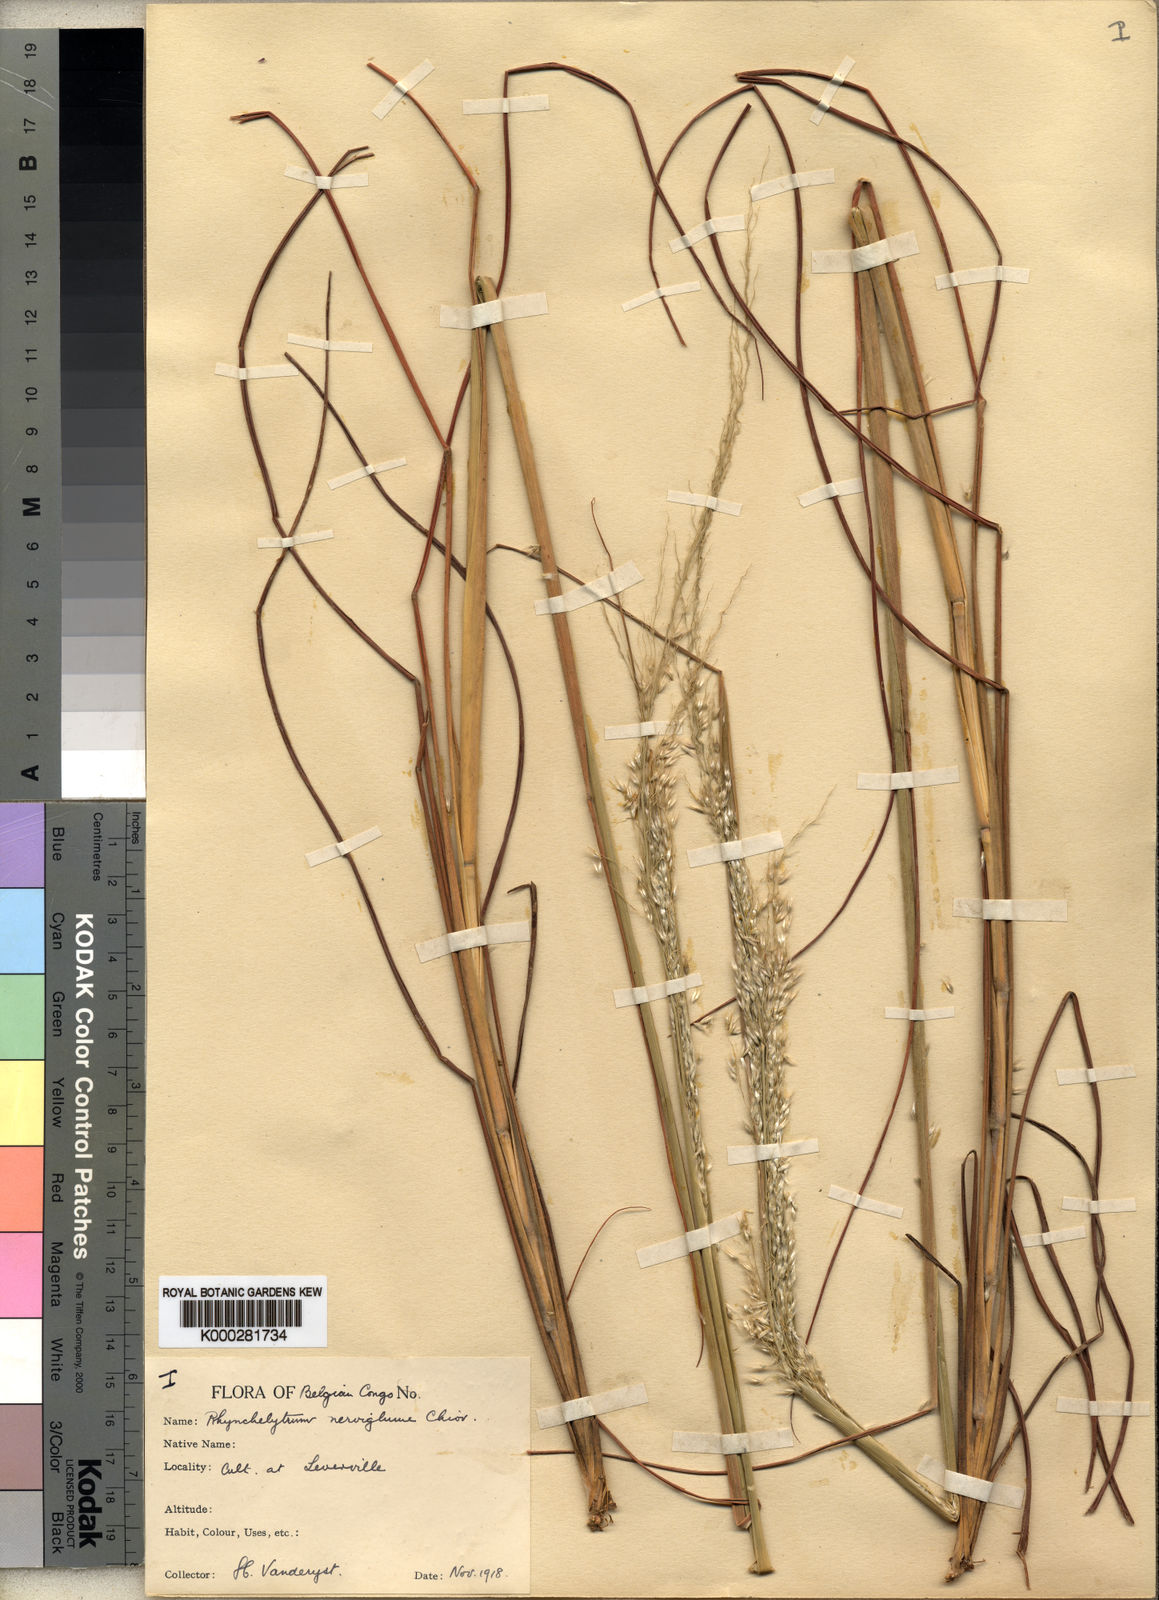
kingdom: Plantae
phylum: Tracheophyta
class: Liliopsida
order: Poales
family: Poaceae
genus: Melinis
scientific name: Melinis nerviglumis
